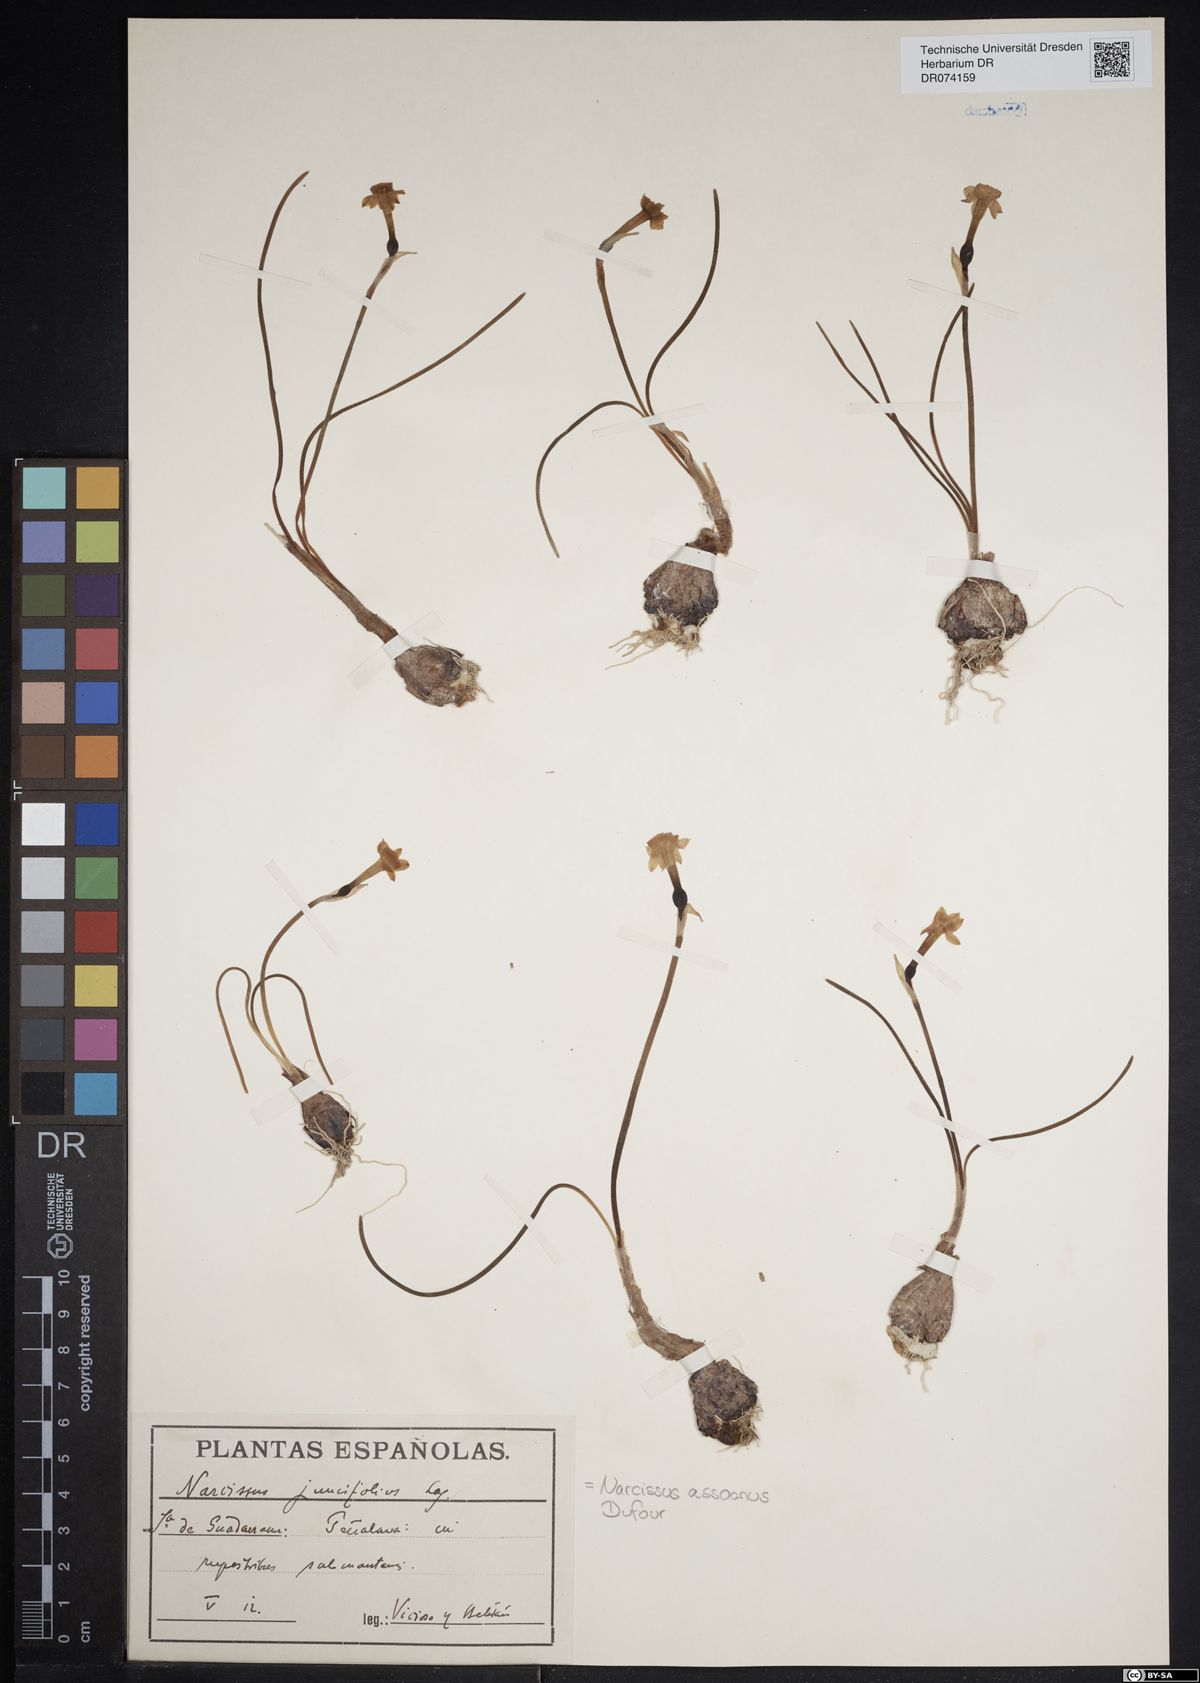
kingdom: Plantae
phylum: Tracheophyta
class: Liliopsida
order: Asparagales
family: Amaryllidaceae
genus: Narcissus
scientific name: Narcissus assoanus
